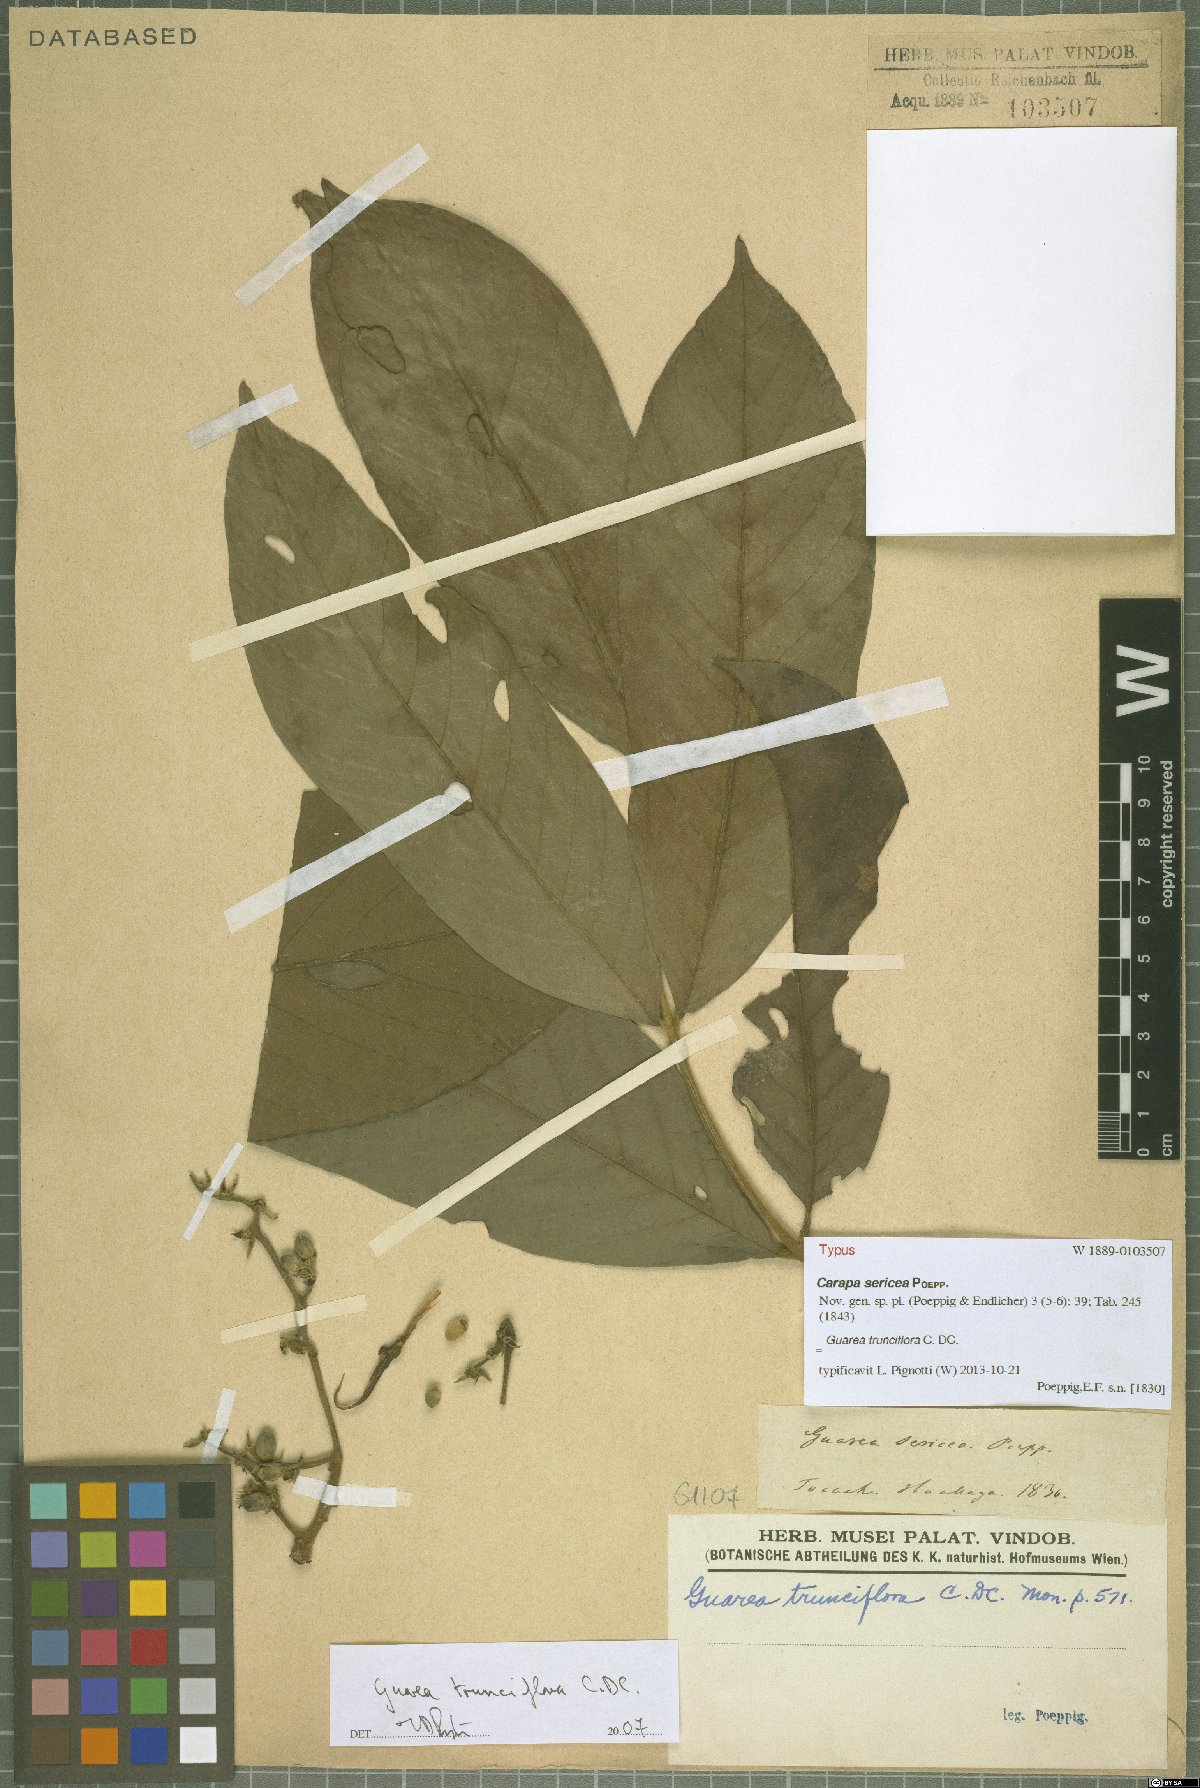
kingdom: Plantae
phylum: Tracheophyta
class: Magnoliopsida
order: Sapindales
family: Meliaceae
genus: Guarea
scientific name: Guarea trunciflora
